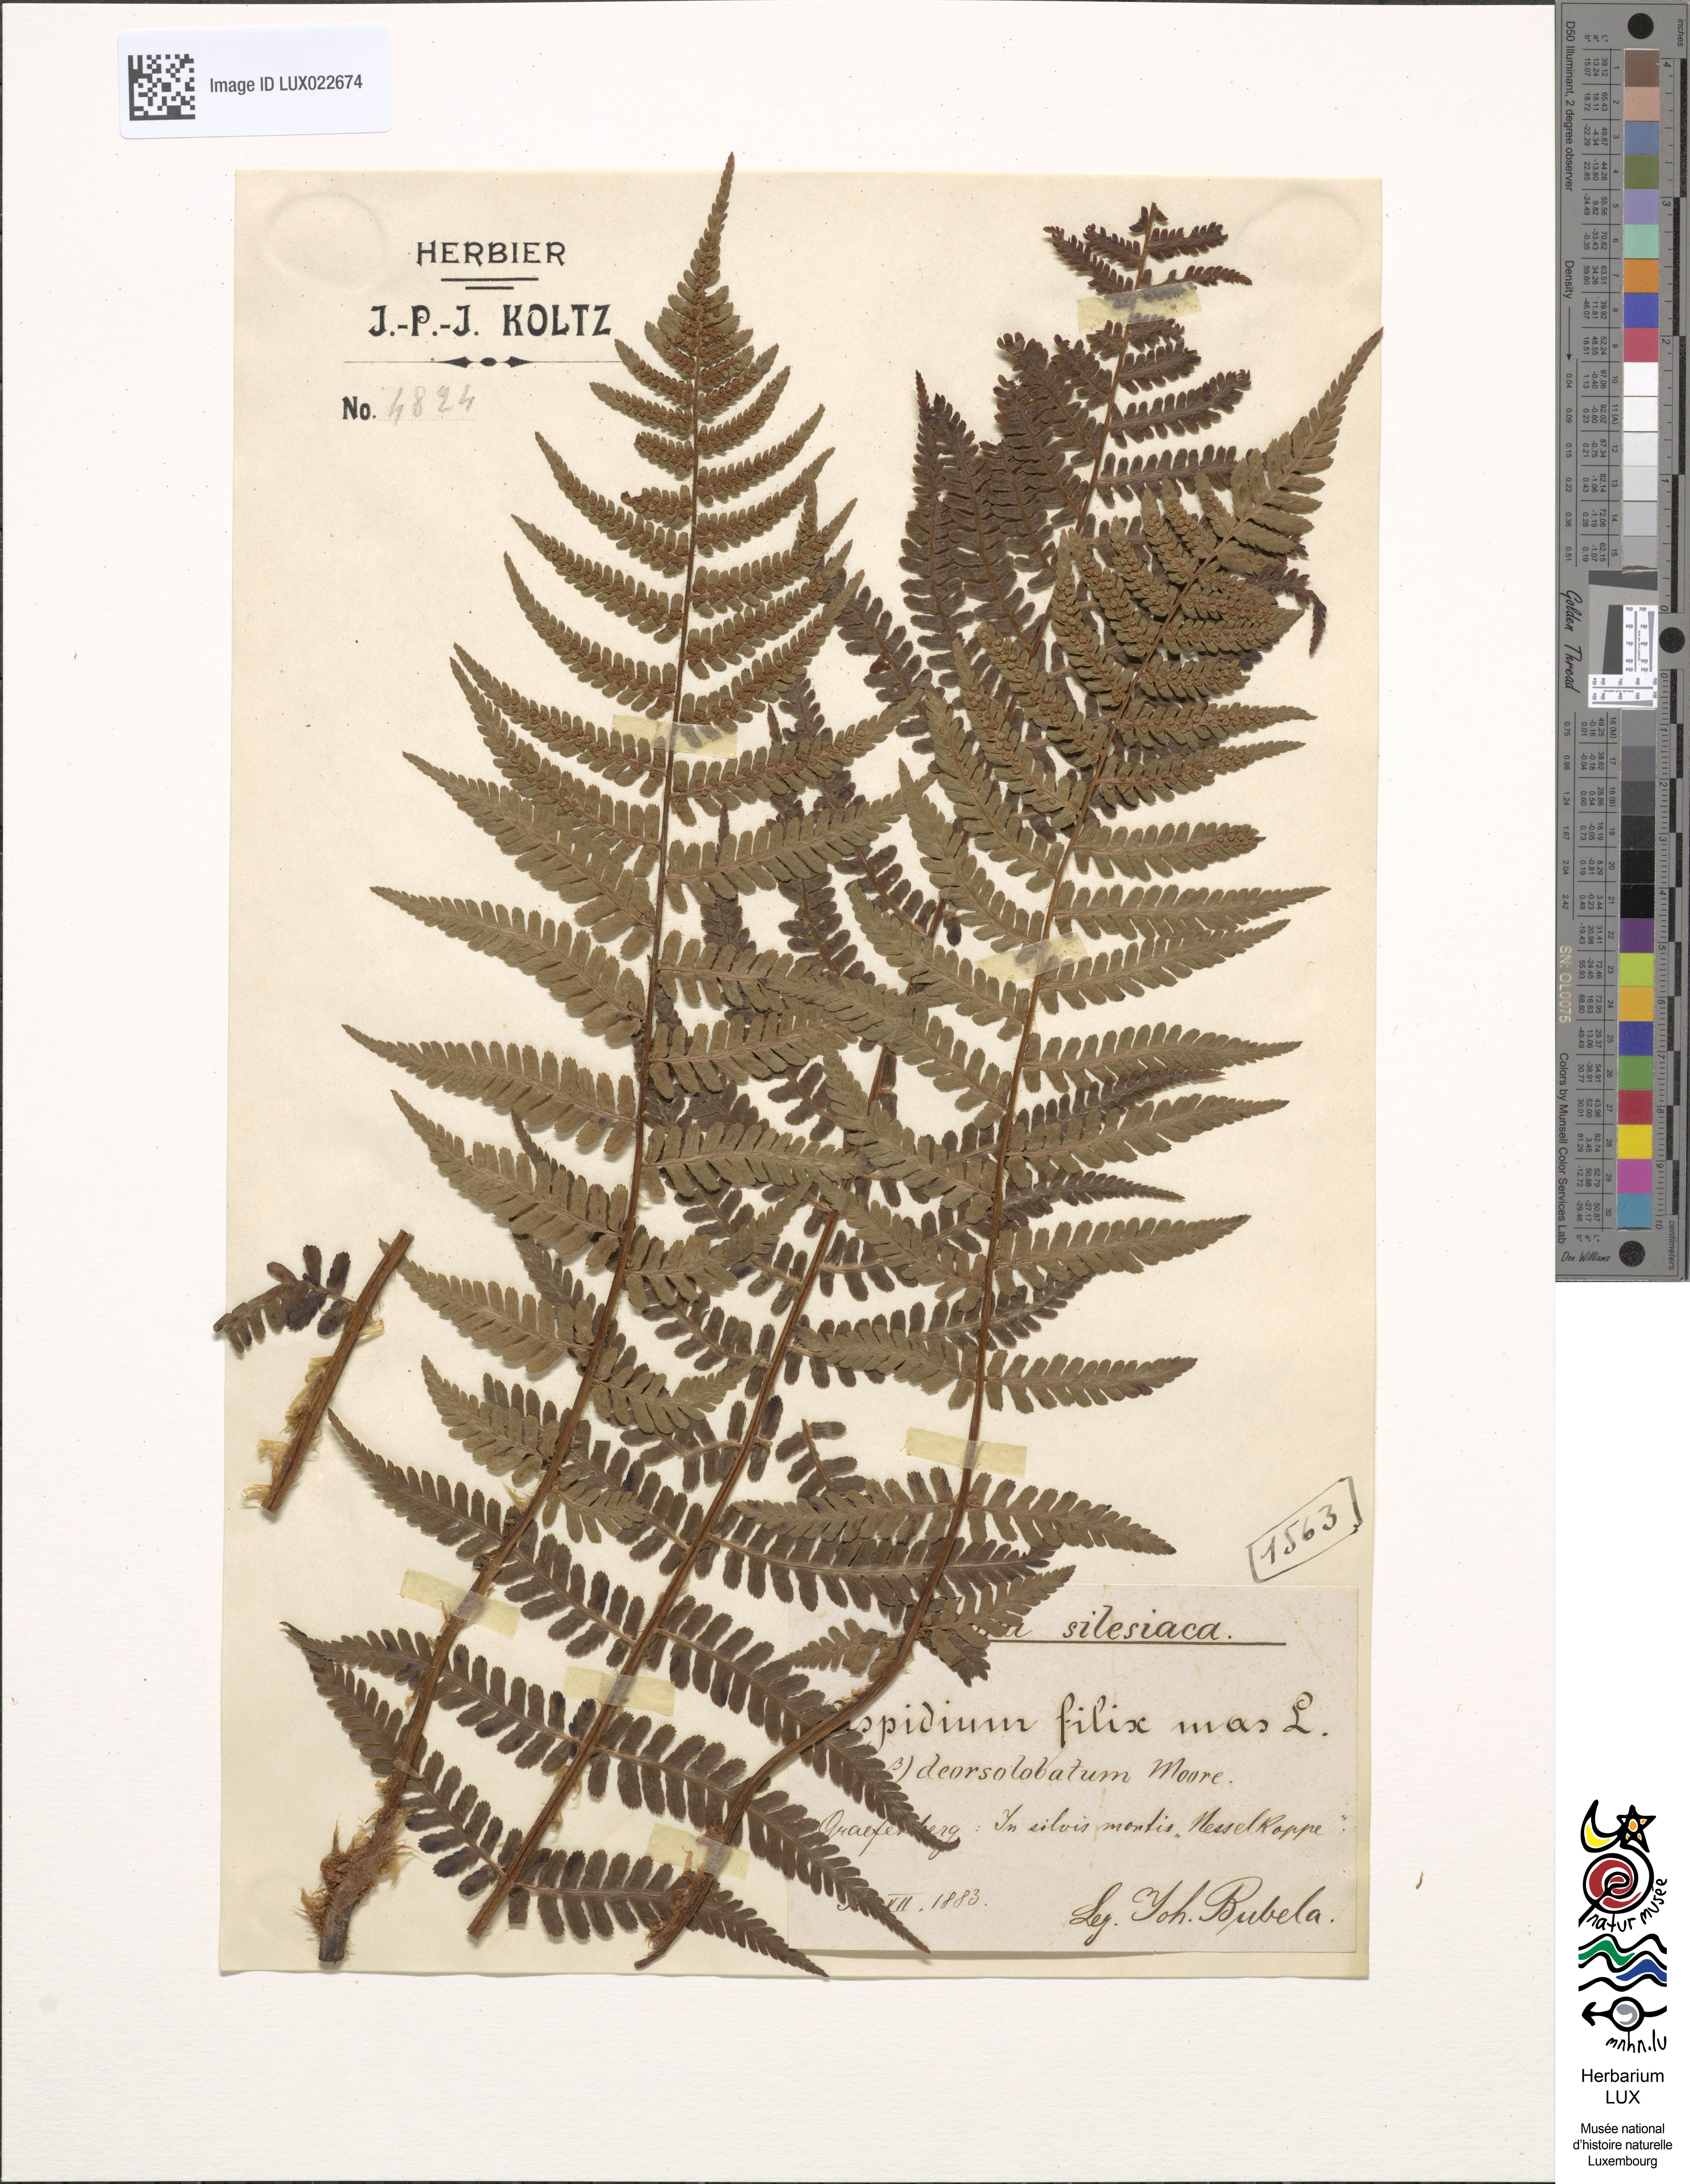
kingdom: Plantae
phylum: Tracheophyta
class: Polypodiopsida
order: Polypodiales
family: Dryopteridaceae
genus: Dryopteris
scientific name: Dryopteris filix-mas
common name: Male fern
